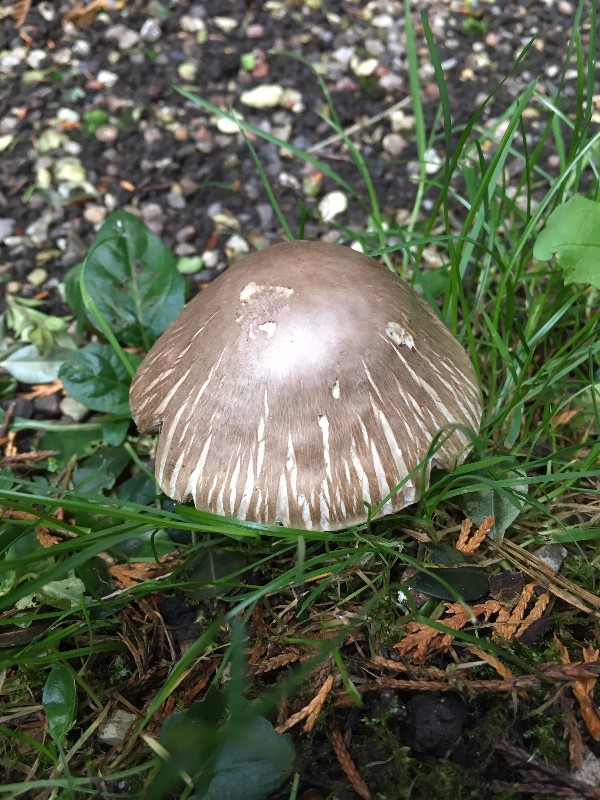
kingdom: Fungi
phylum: Basidiomycota
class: Agaricomycetes
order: Agaricales
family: Agaricaceae
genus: Agaricus
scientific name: Agaricus
